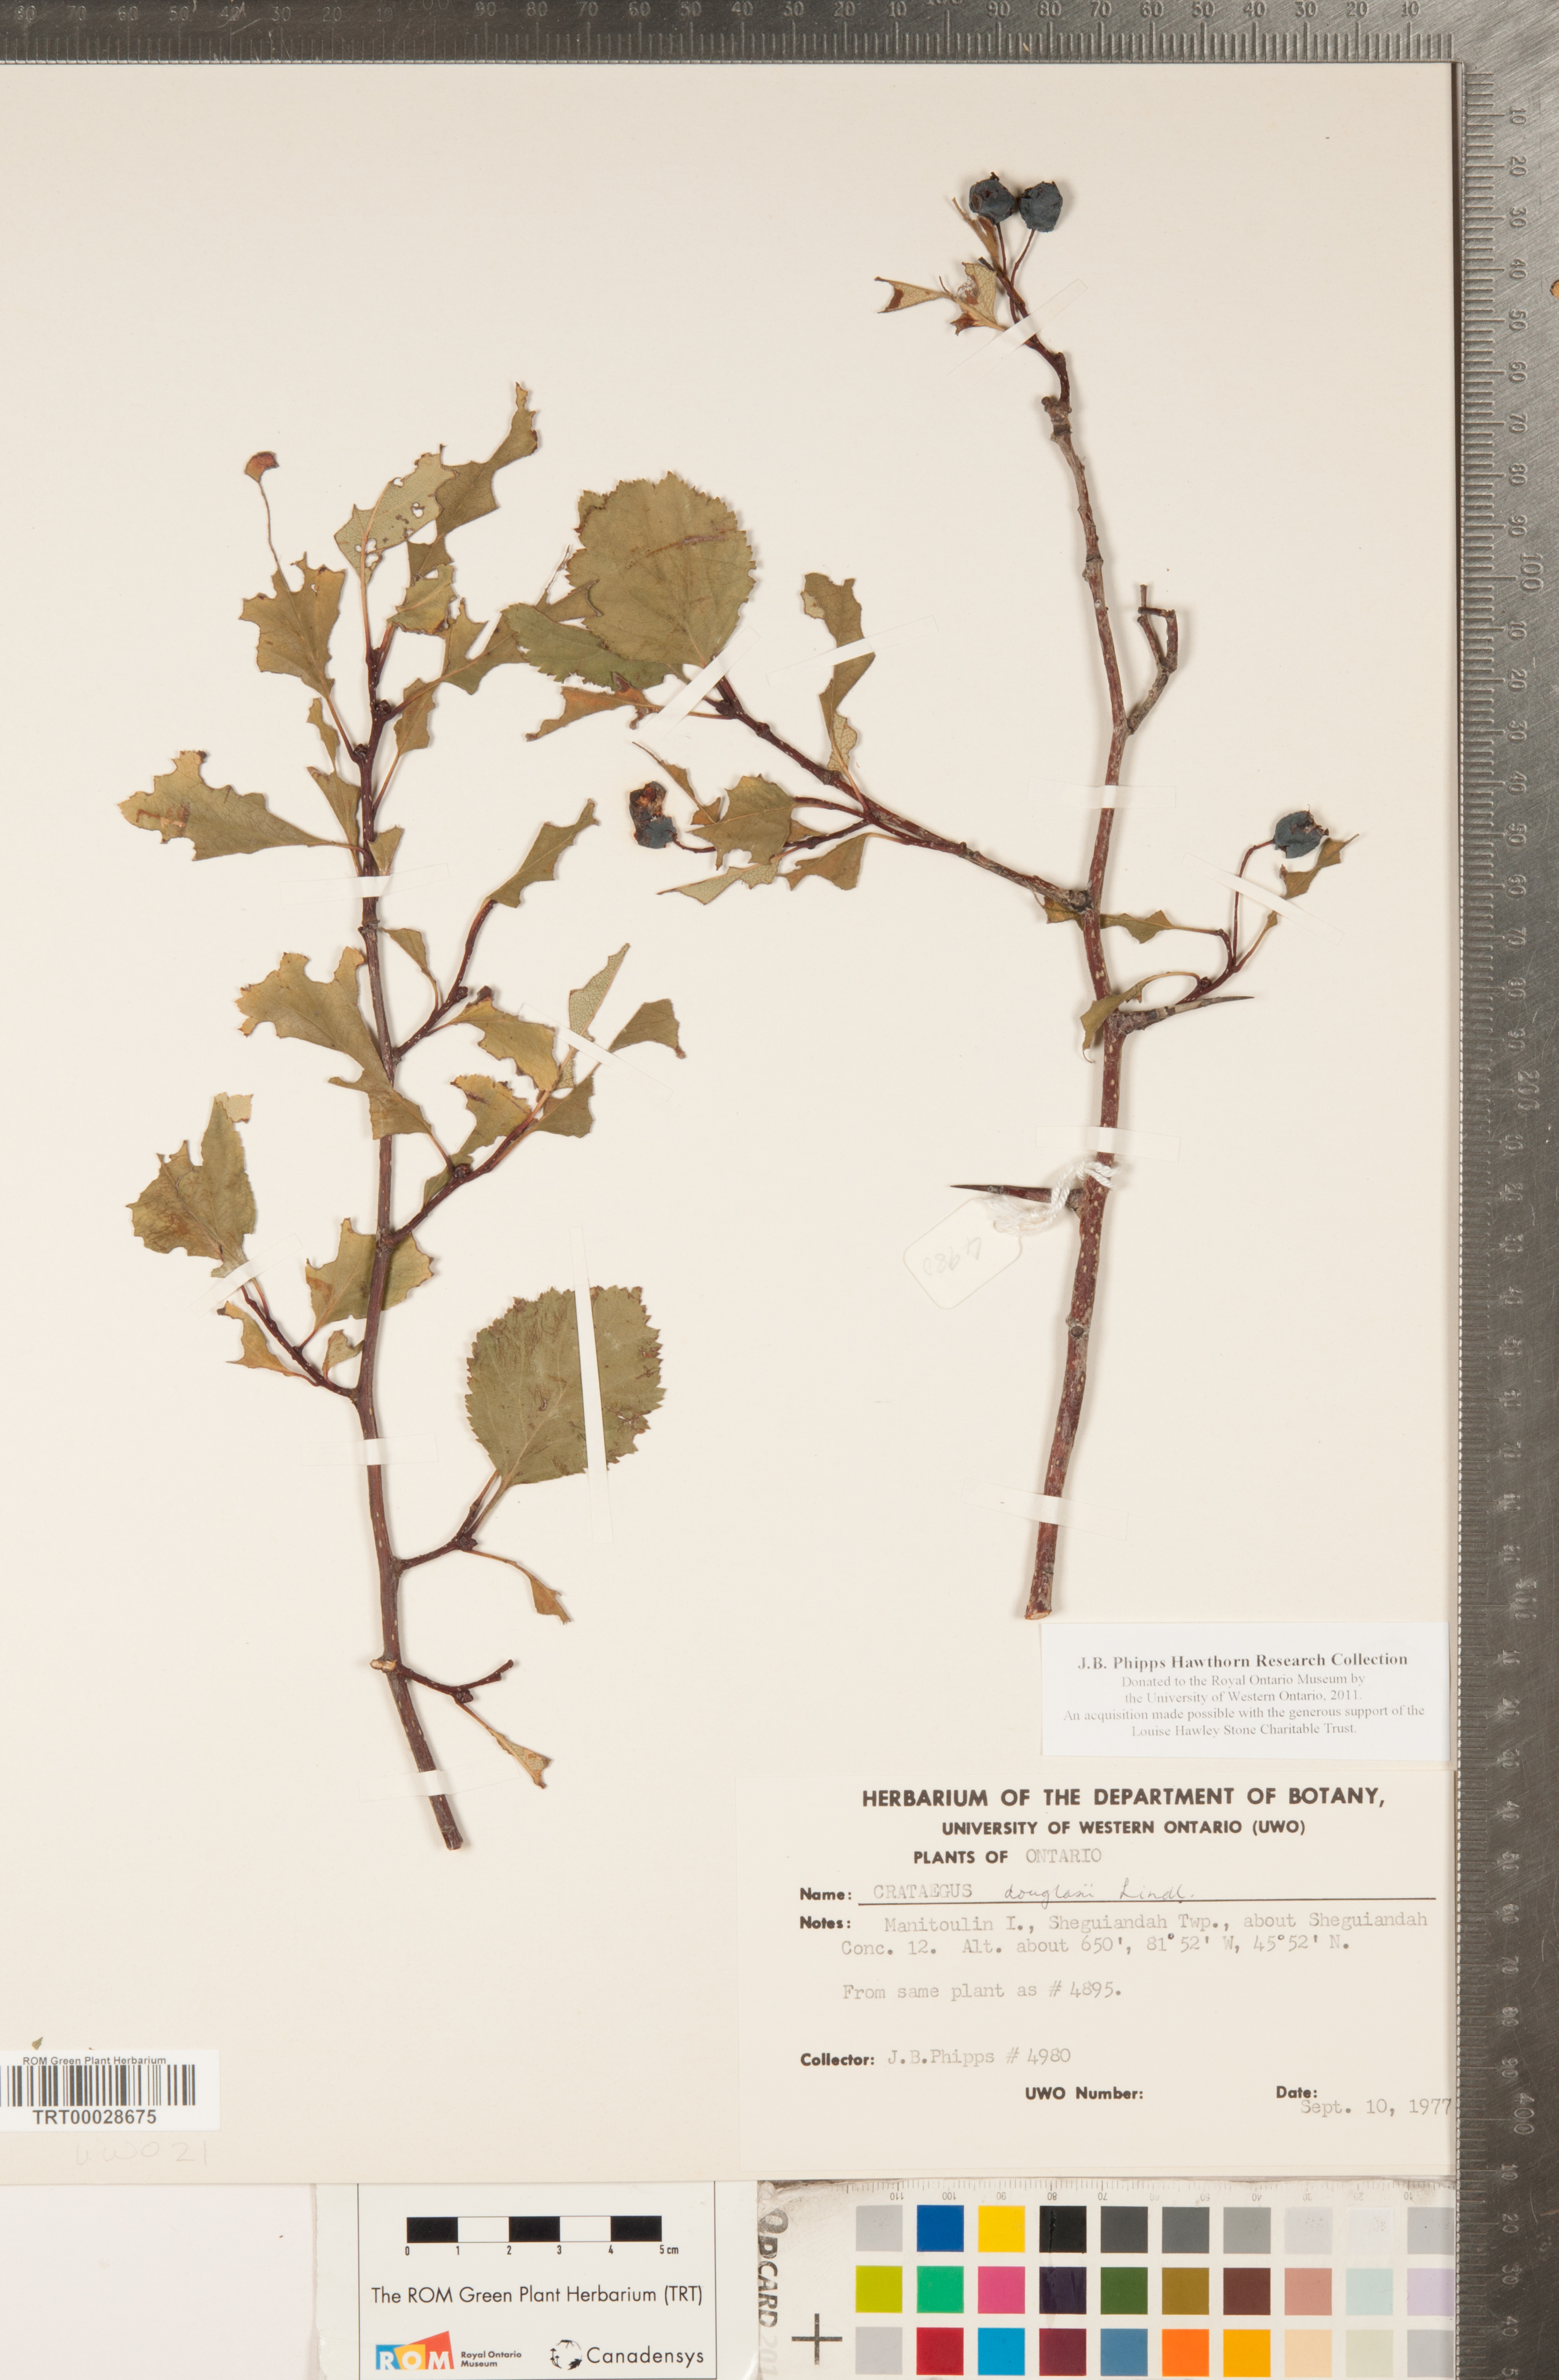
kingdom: Plantae
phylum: Tracheophyta
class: Magnoliopsida
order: Rosales
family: Rosaceae
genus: Crataegus
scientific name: Crataegus douglasii
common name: Black hawthorn
